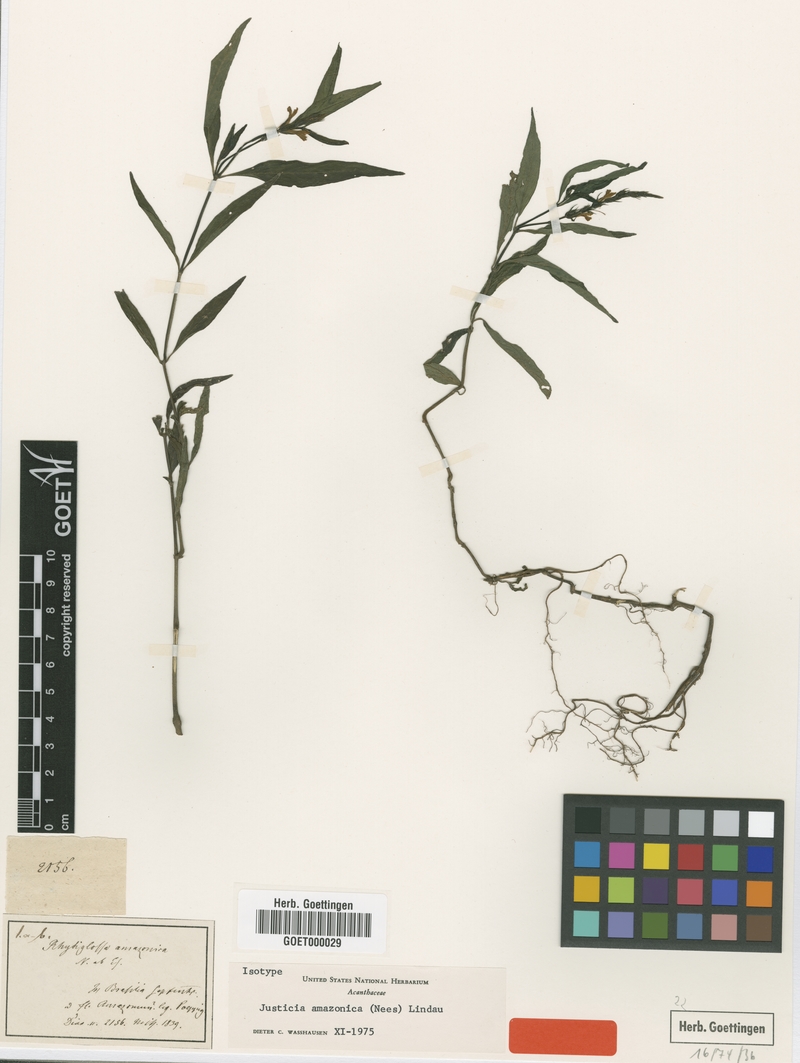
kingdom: Plantae
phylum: Tracheophyta
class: Magnoliopsida
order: Lamiales
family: Acanthaceae
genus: Justicia
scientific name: Justicia amazonica
